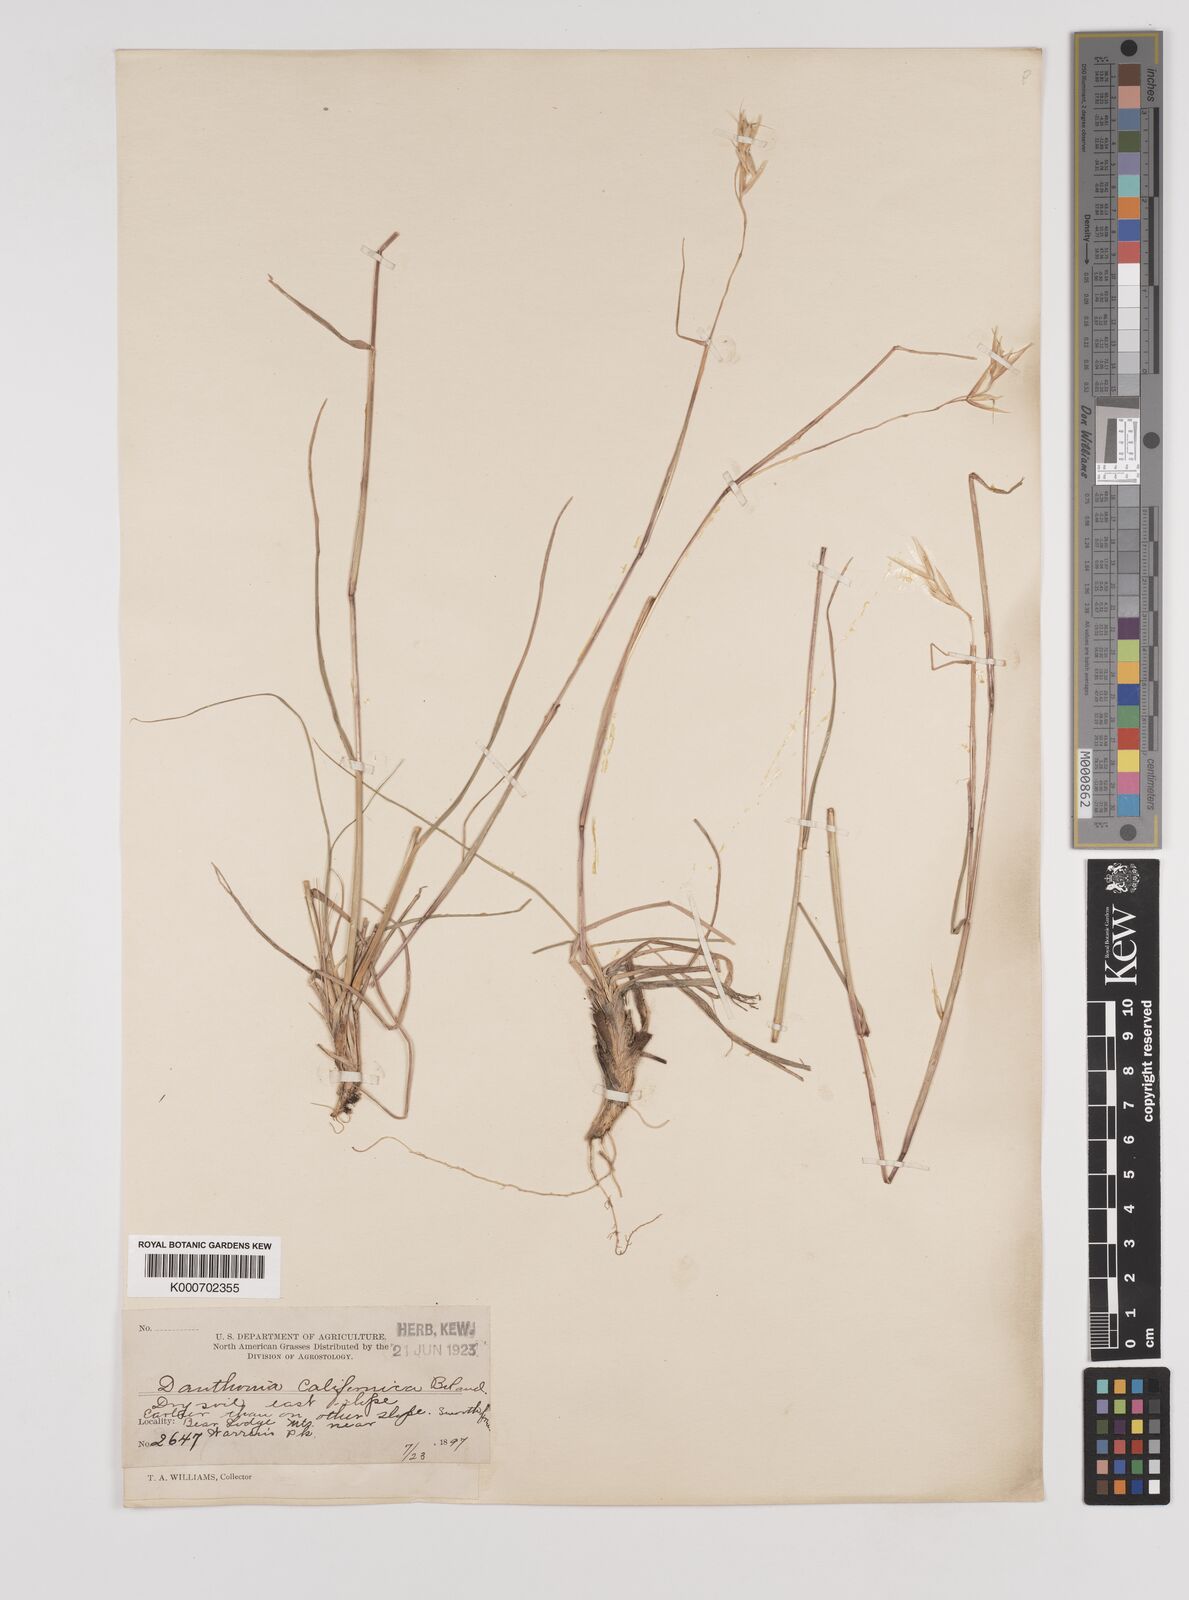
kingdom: Plantae
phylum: Tracheophyta
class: Liliopsida
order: Poales
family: Poaceae
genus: Danthonia
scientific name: Danthonia californica
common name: California oat grass
